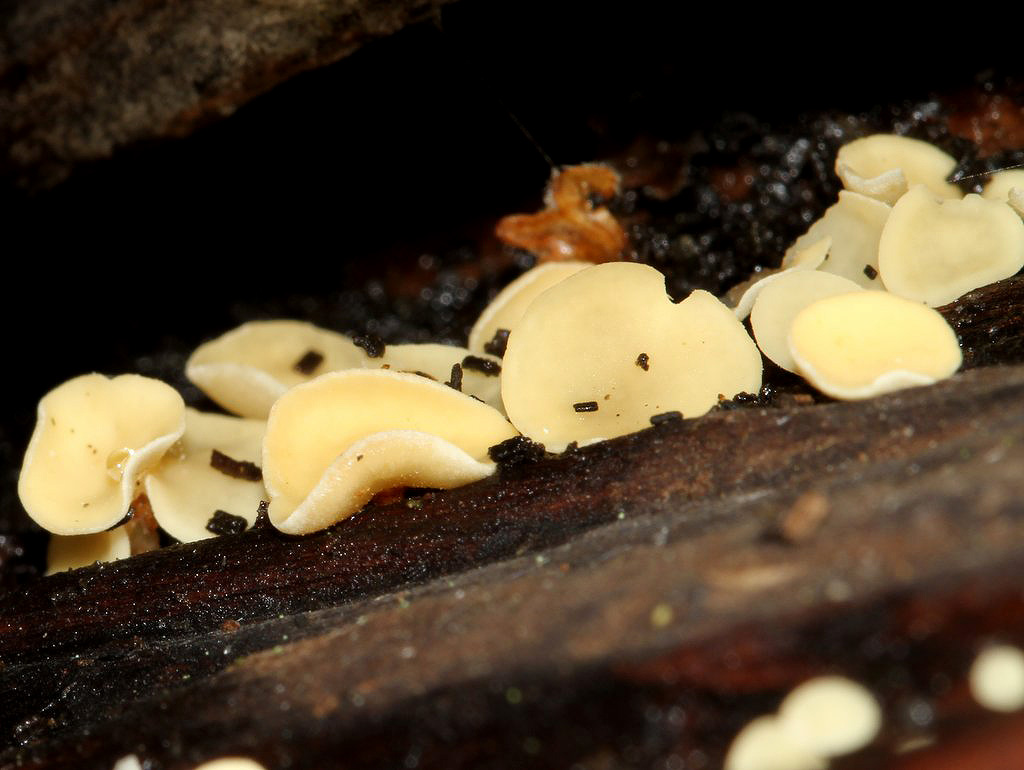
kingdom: Fungi
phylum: Ascomycota
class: Leotiomycetes
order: Helotiales
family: Helotiaceae
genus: Hymenoscyphus
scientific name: Hymenoscyphus calyculus
